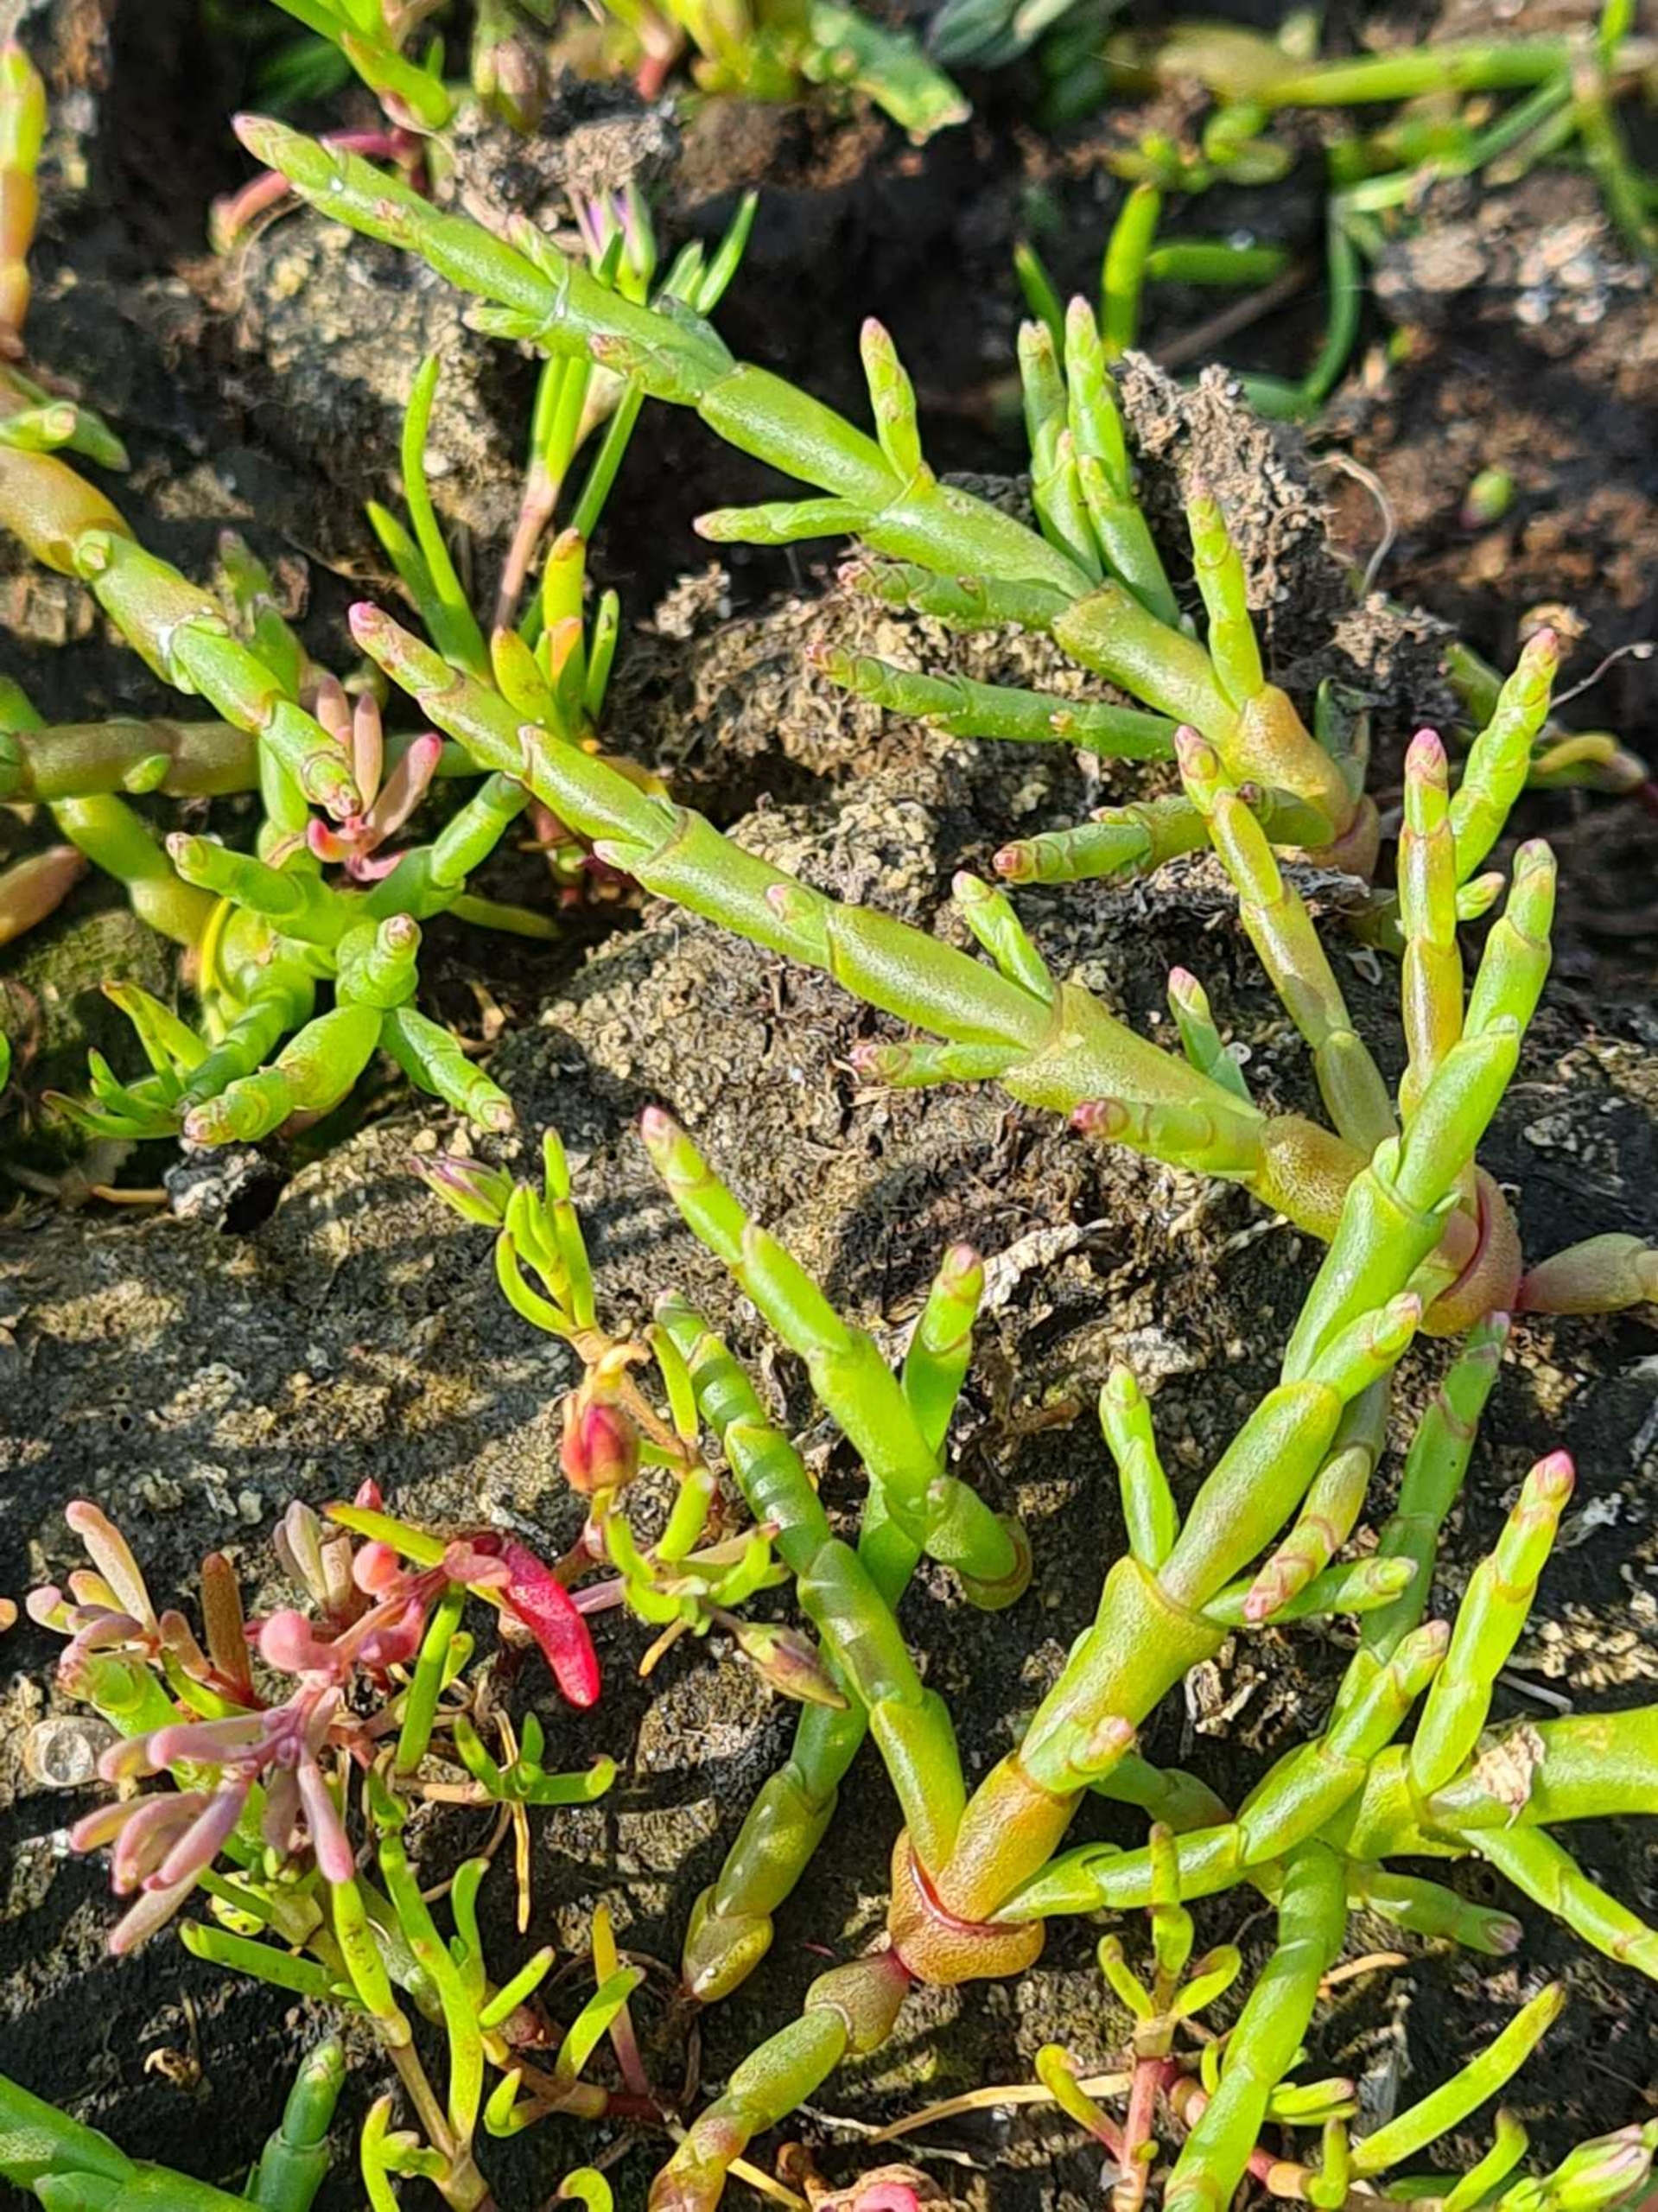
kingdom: Plantae
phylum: Tracheophyta
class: Magnoliopsida
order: Caryophyllales
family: Amaranthaceae
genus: Salicornia
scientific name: Salicornia europaea
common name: Almindelig salturt
